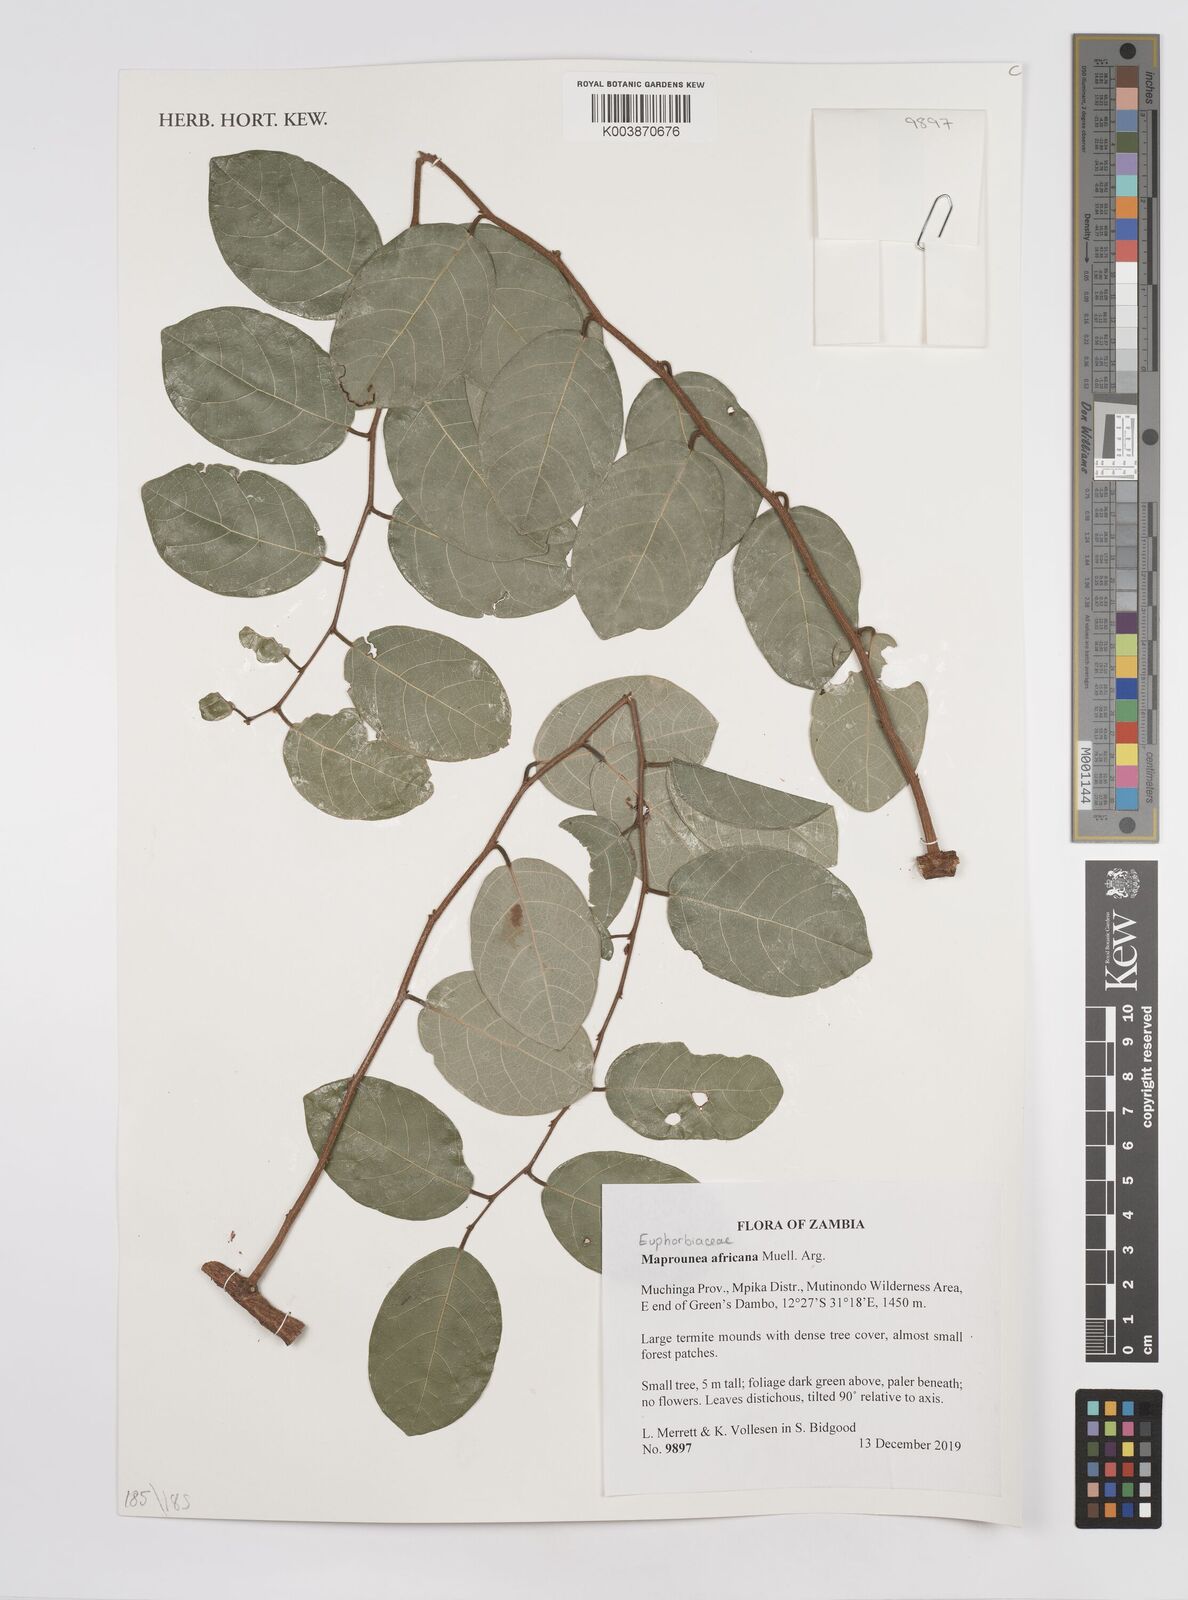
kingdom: Plantae
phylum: Tracheophyta
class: Magnoliopsida
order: Malpighiales
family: Euphorbiaceae
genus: Maprounea
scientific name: Maprounea africana
